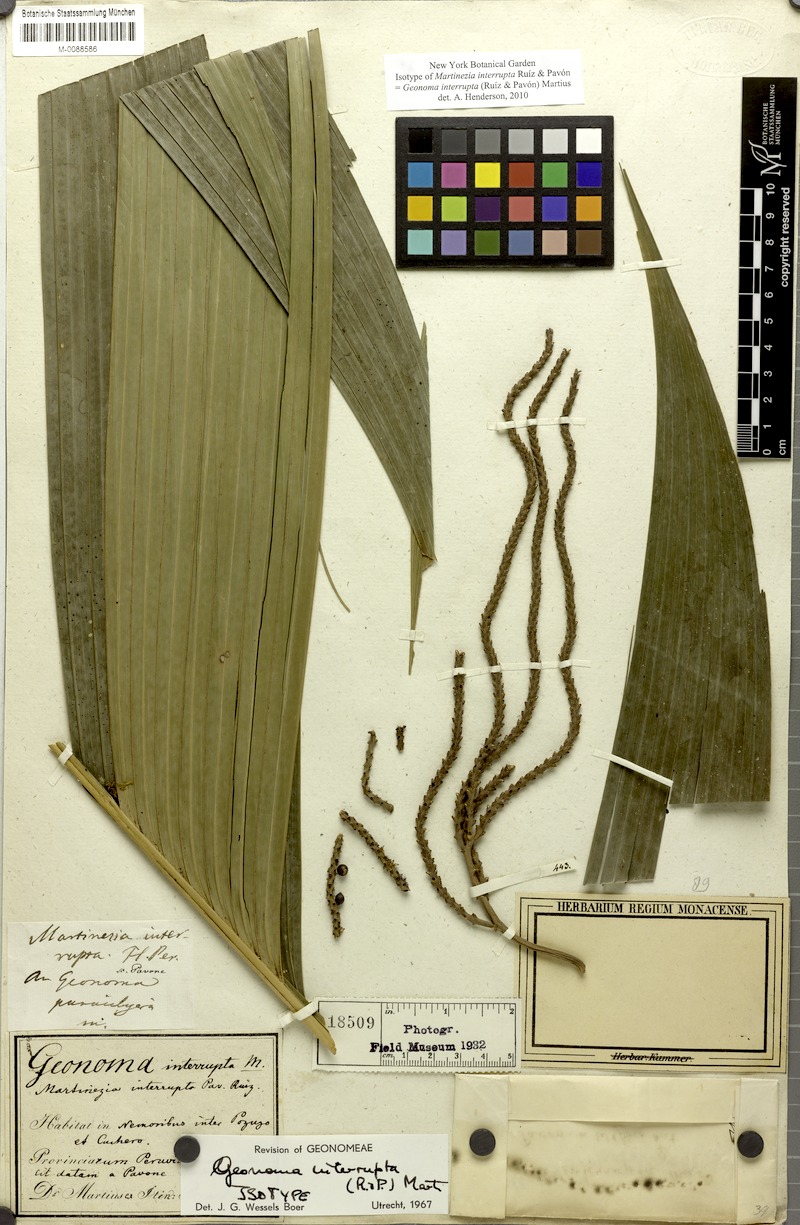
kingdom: Plantae
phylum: Tracheophyta
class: Liliopsida
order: Arecales
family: Arecaceae
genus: Geonoma
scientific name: Geonoma interrupta
